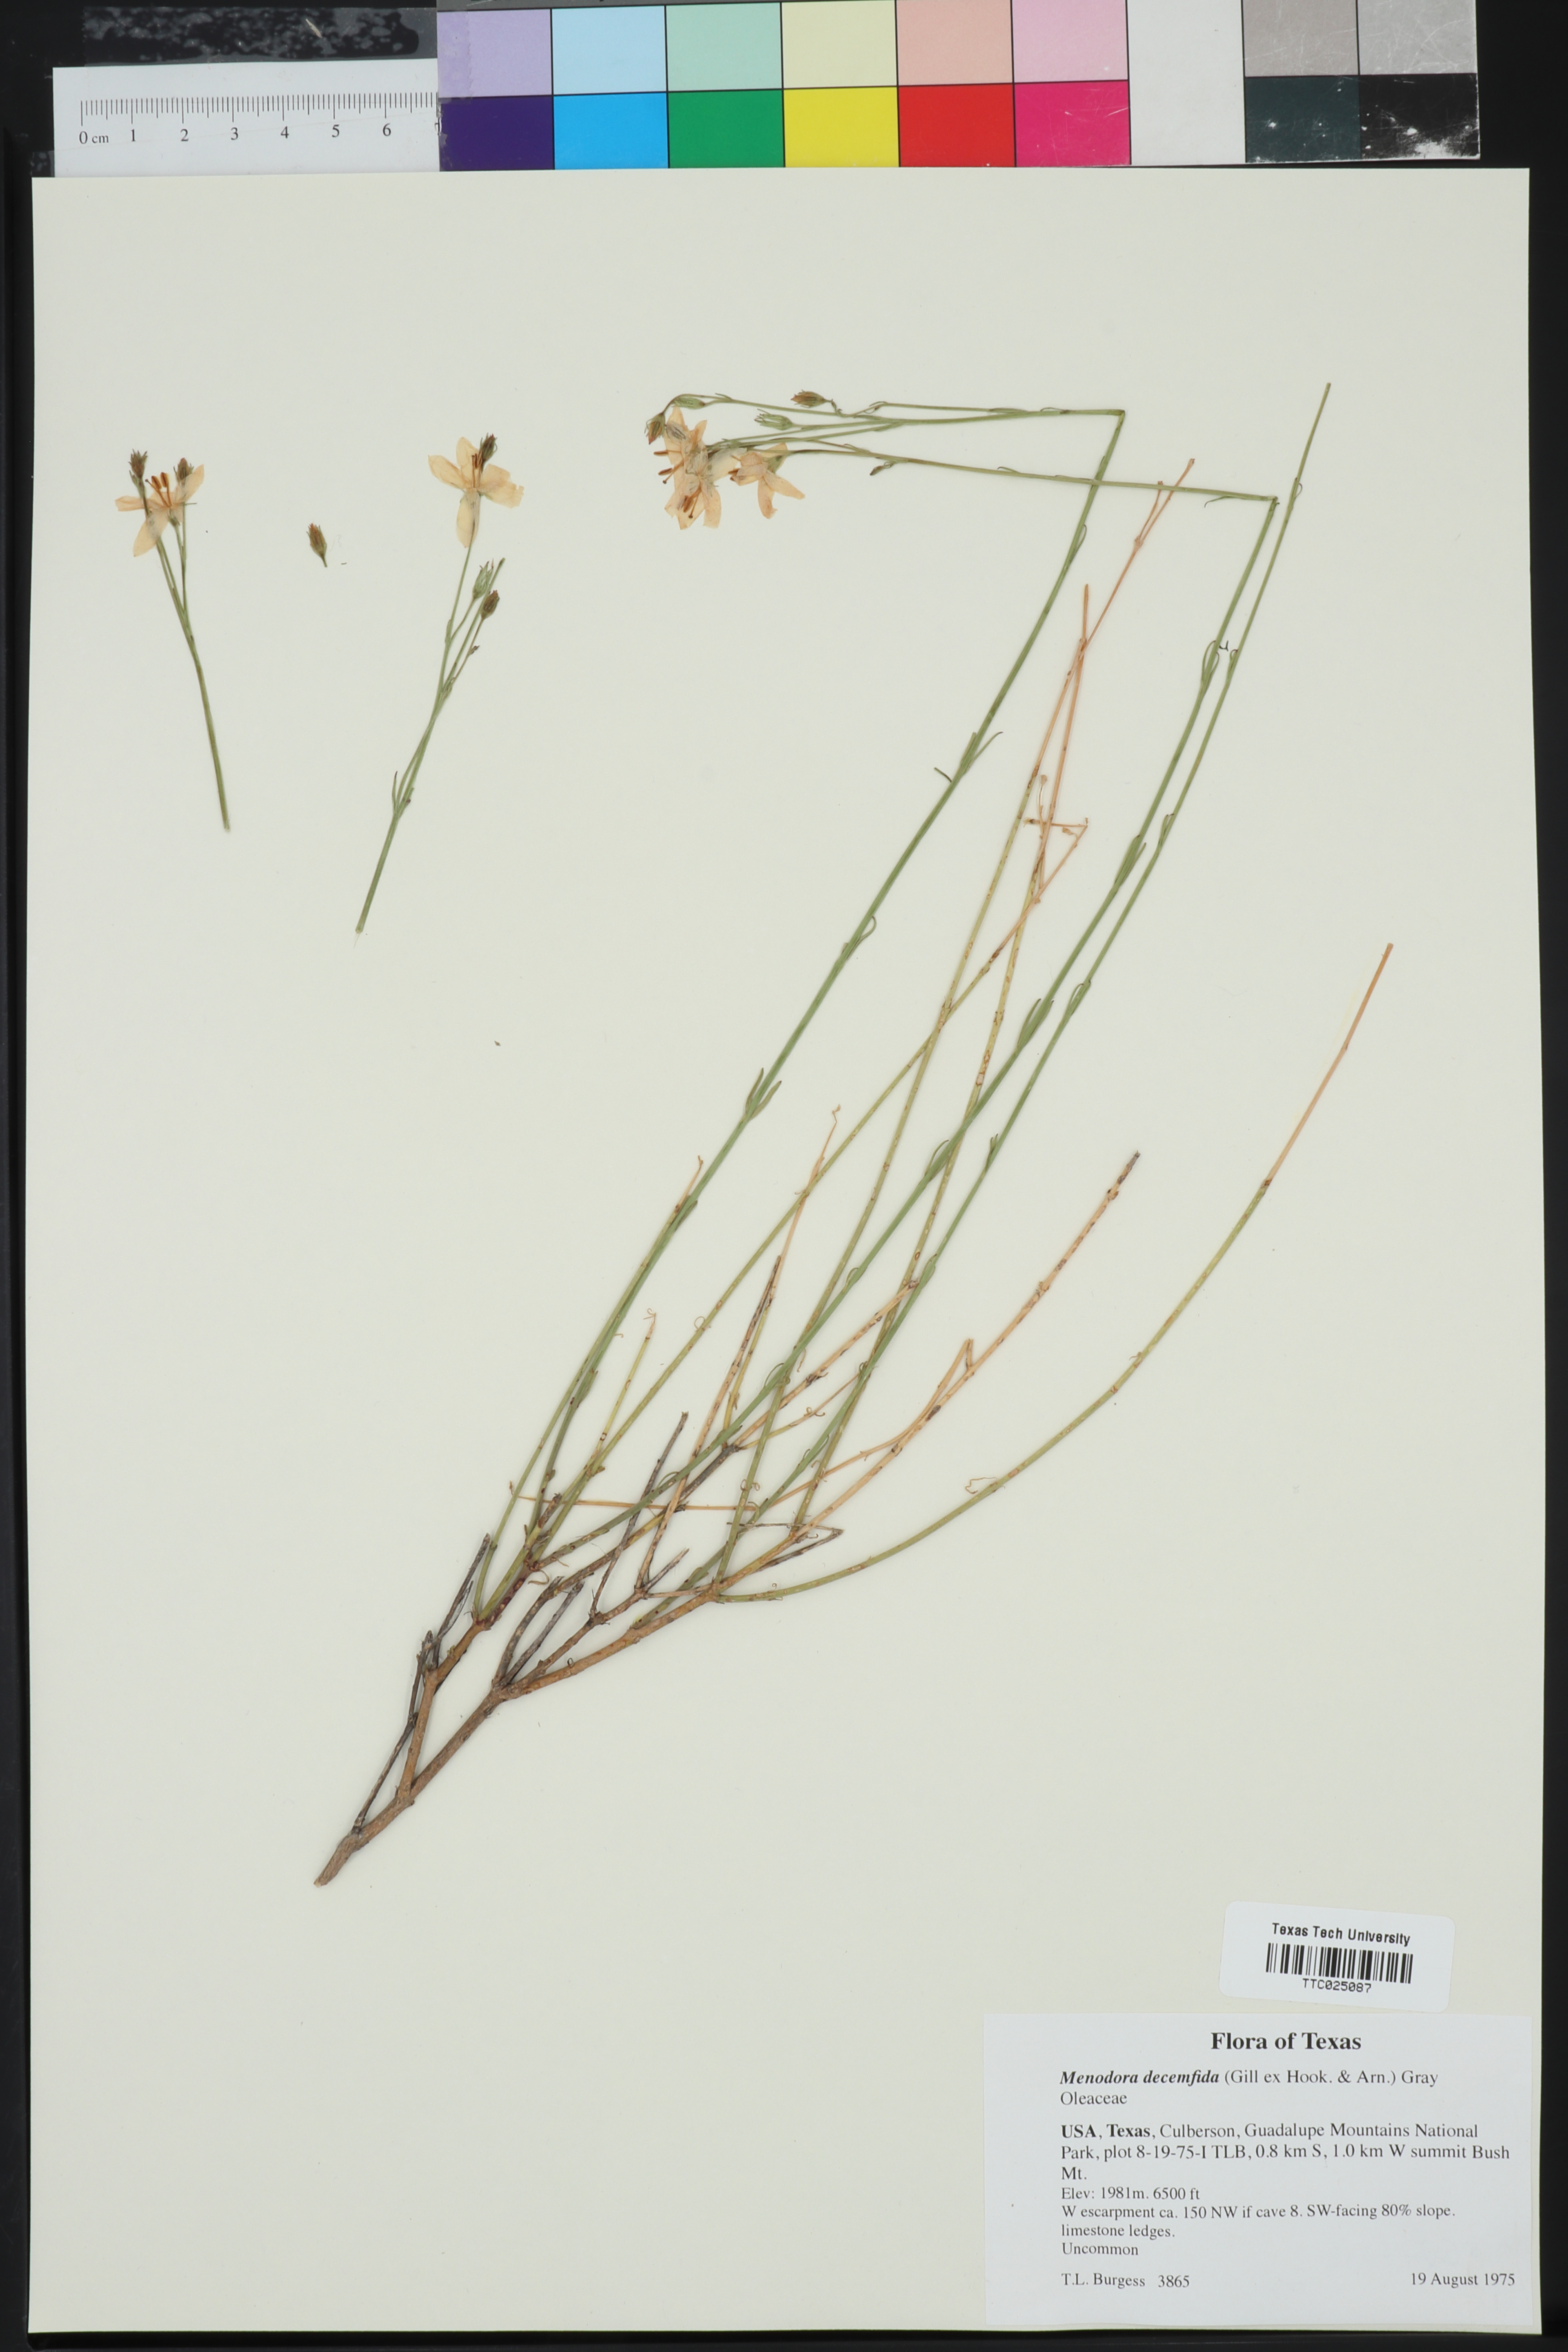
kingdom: Plantae
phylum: Tracheophyta
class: Magnoliopsida
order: Lamiales
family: Oleaceae
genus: Menodora
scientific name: Menodora decemfida
